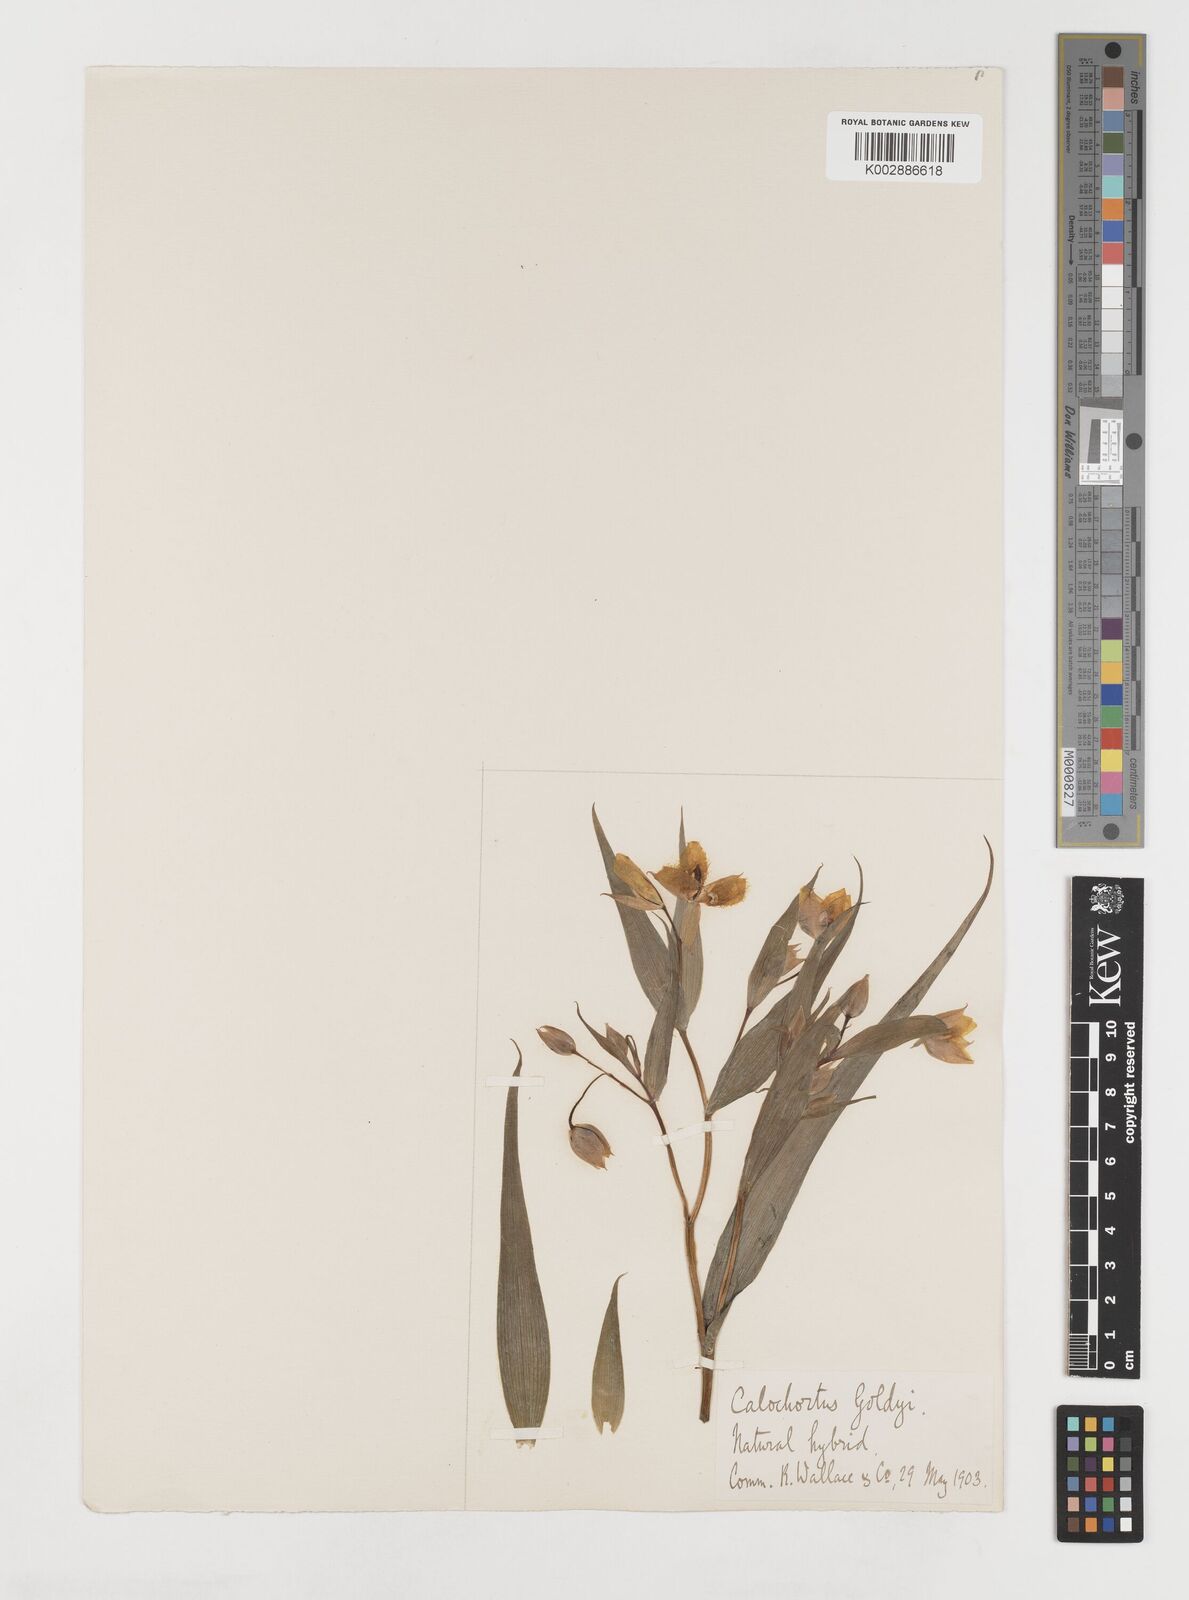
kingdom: Plantae
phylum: Tracheophyta
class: Liliopsida
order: Liliales
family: Liliaceae
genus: Calochortus
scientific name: Calochortus
